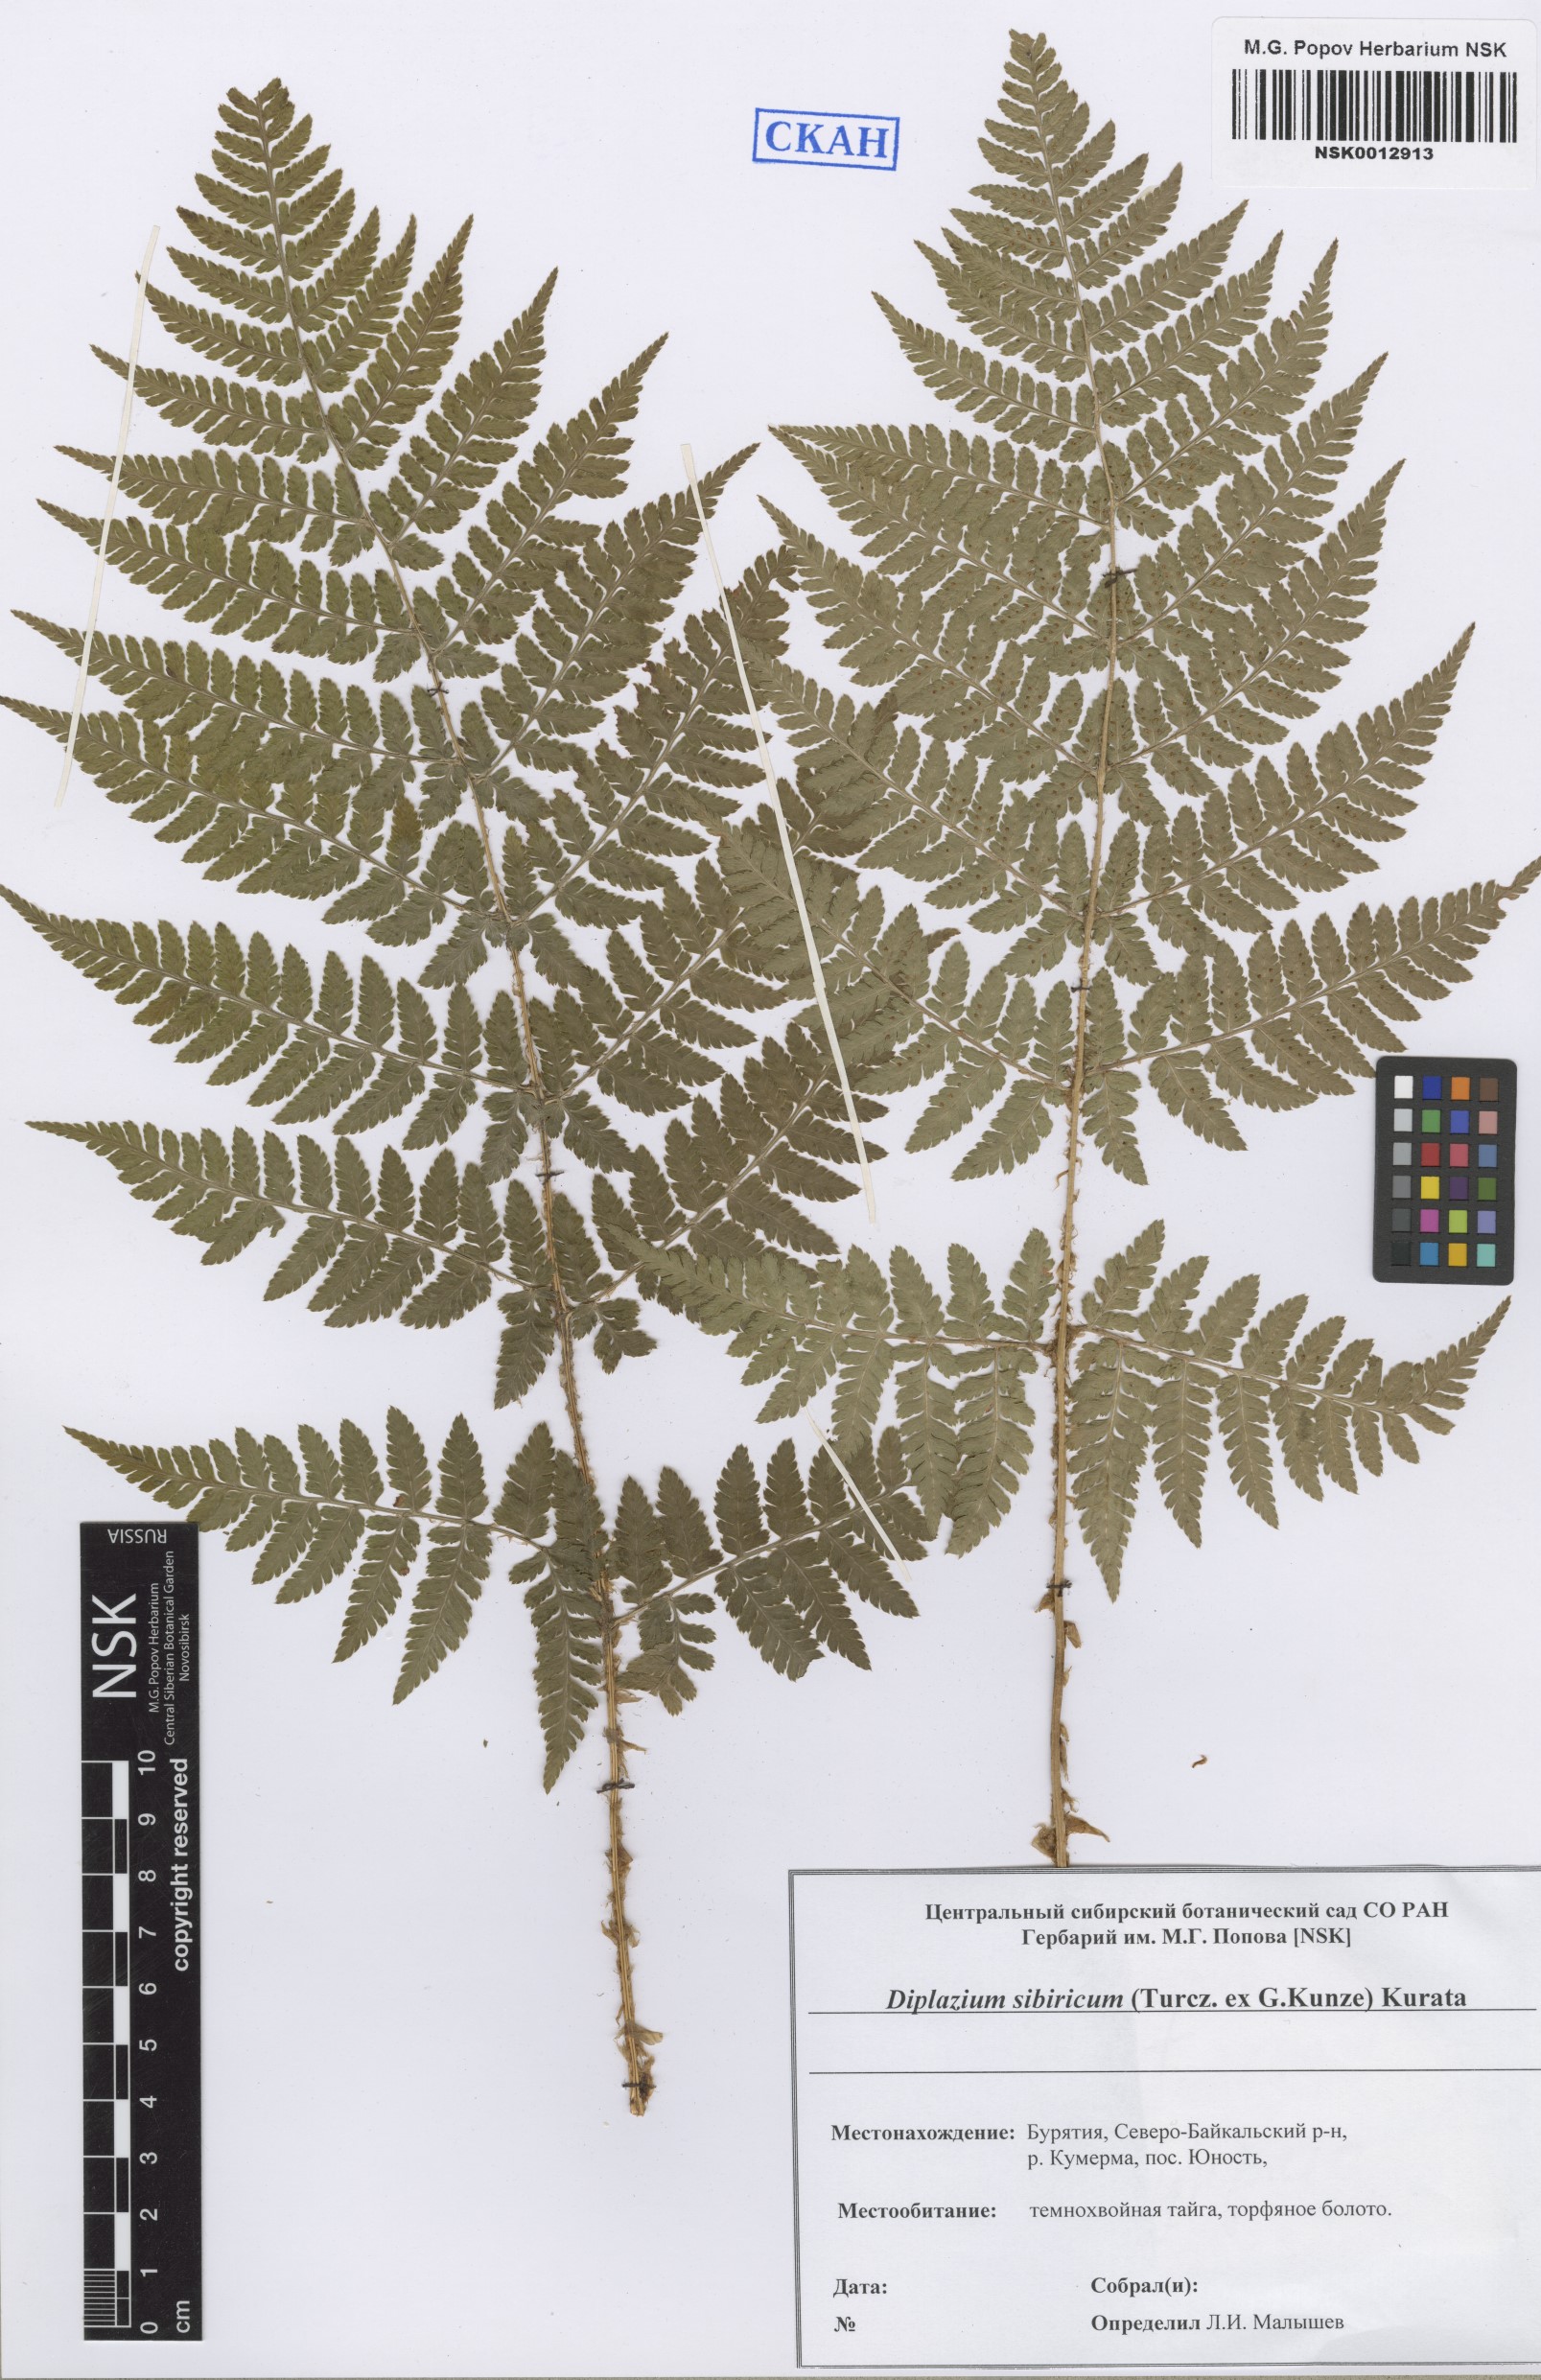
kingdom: Plantae
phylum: Tracheophyta
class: Polypodiopsida
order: Polypodiales
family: Athyriaceae
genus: Diplazium
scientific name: Diplazium sibiricum
